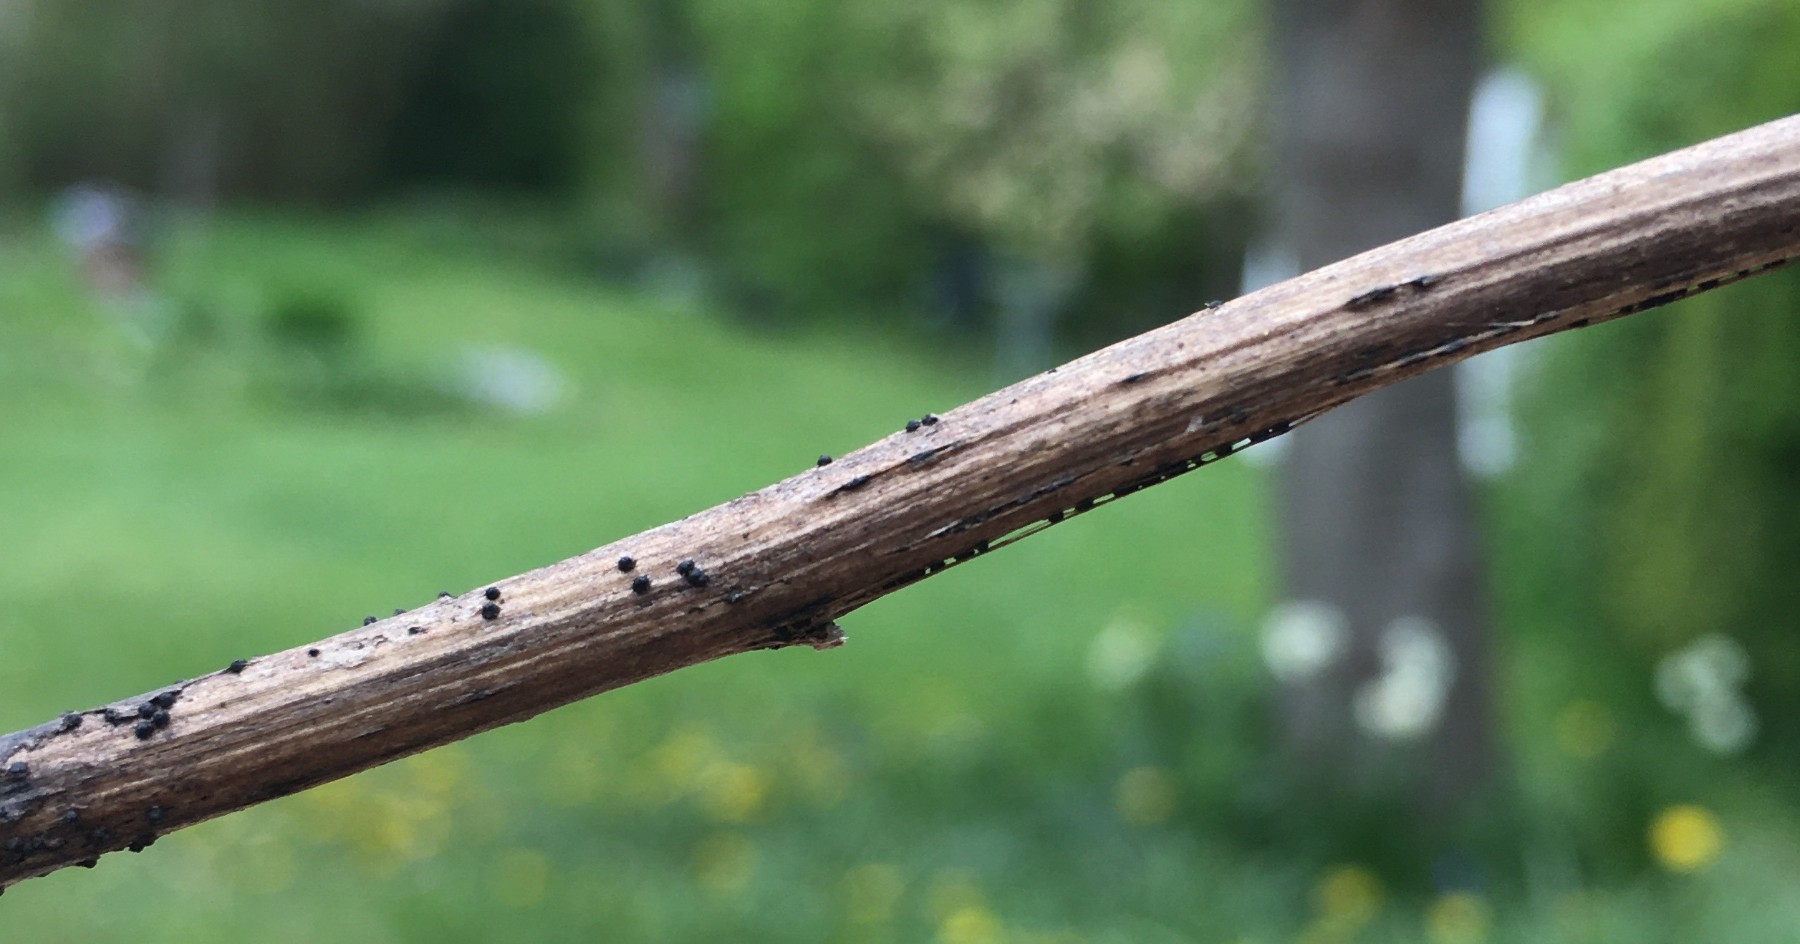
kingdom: Fungi
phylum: Ascomycota
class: Dothideomycetes
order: Pleosporales
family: Phaeosphaeriaceae
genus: Phaeosphaeria
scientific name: Phaeosphaeria sowerbyi
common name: kål-kulkegle
